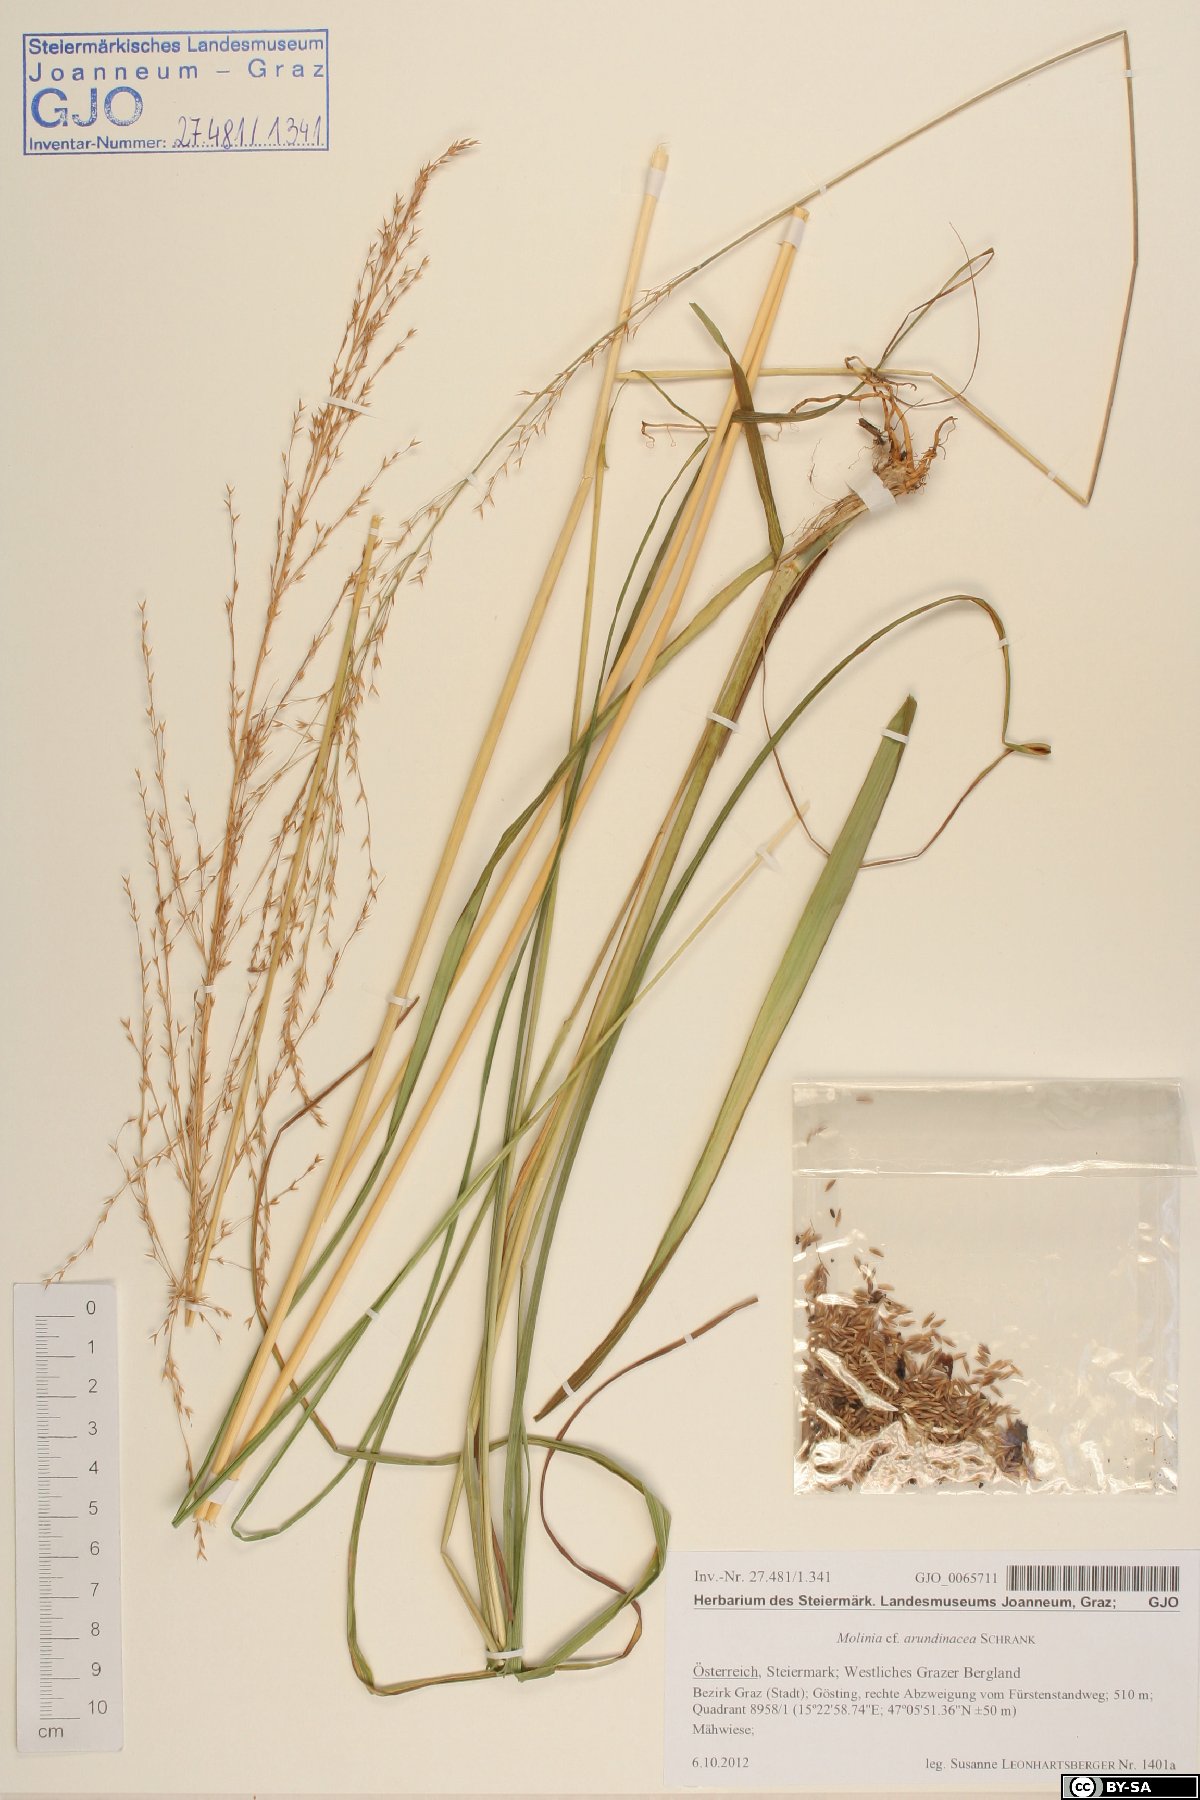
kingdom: Plantae
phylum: Tracheophyta
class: Liliopsida
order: Poales
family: Poaceae
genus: Molinia
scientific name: Molinia arundinacea
